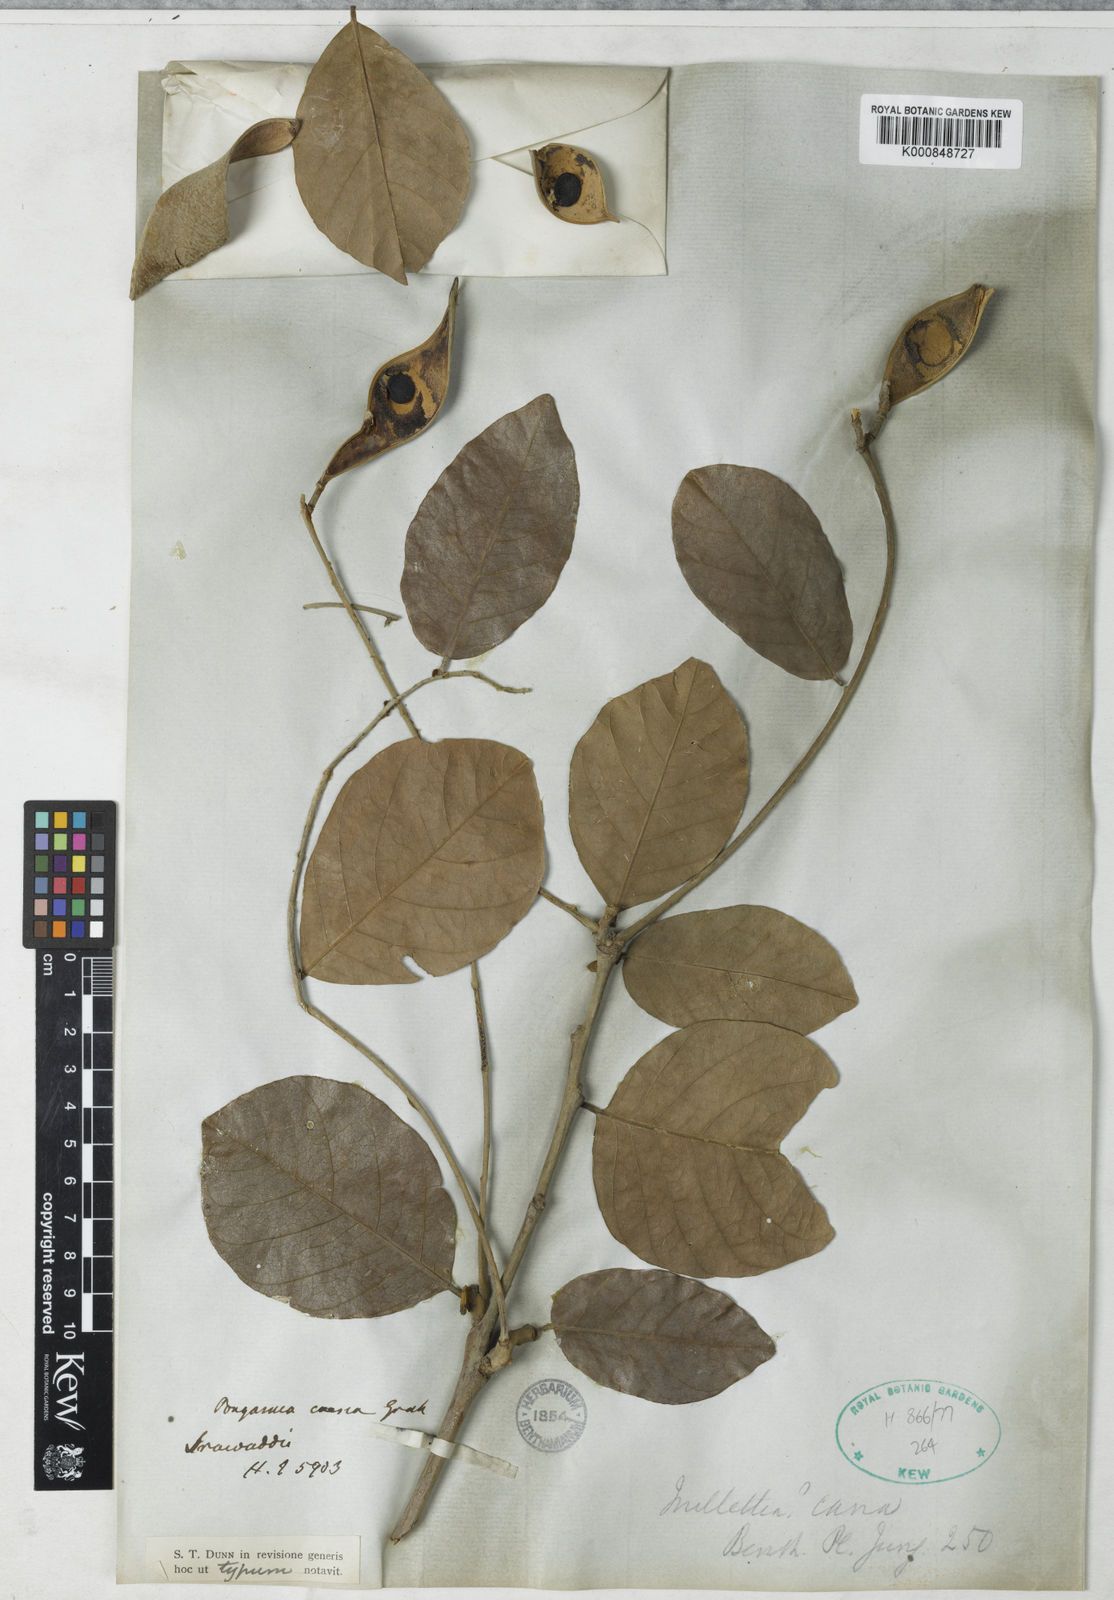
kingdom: Plantae
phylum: Tracheophyta
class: Magnoliopsida
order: Fabales
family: Fabaceae
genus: Millettia
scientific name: Millettia cana
